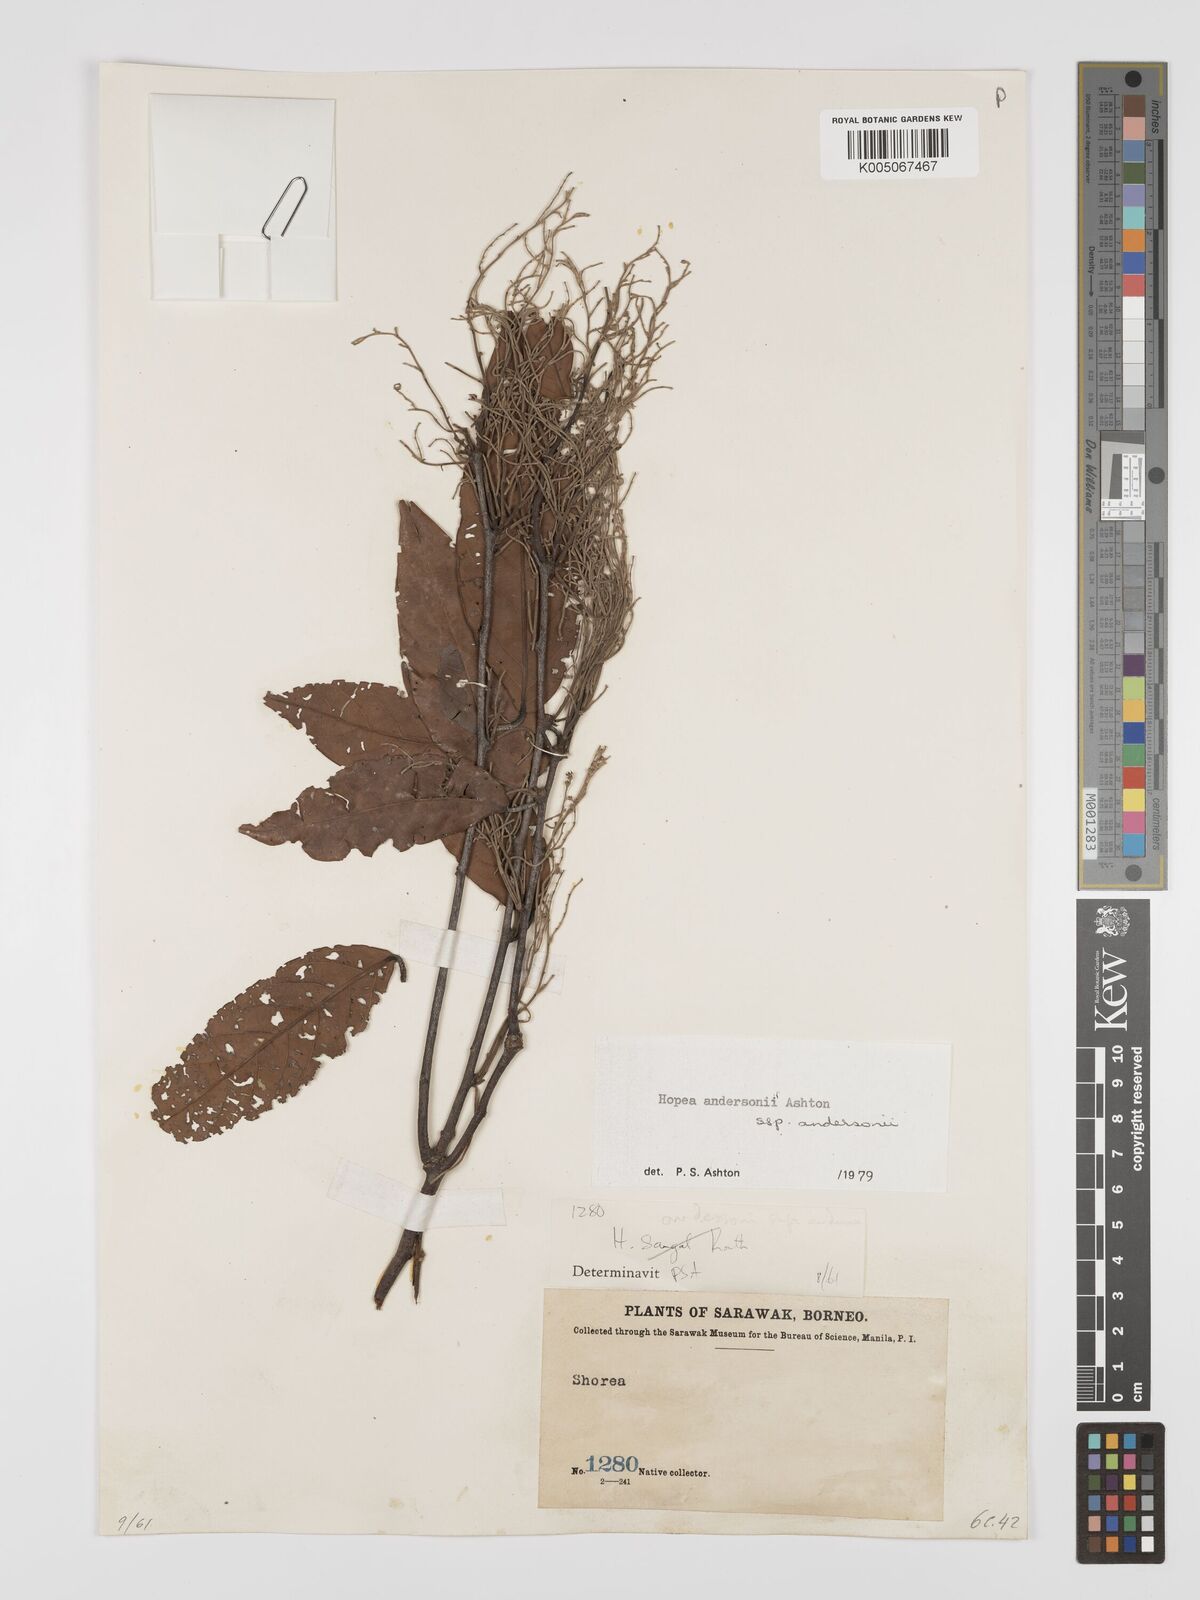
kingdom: Plantae
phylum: Tracheophyta
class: Magnoliopsida
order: Malvales
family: Dipterocarpaceae
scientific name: Dipterocarpaceae
